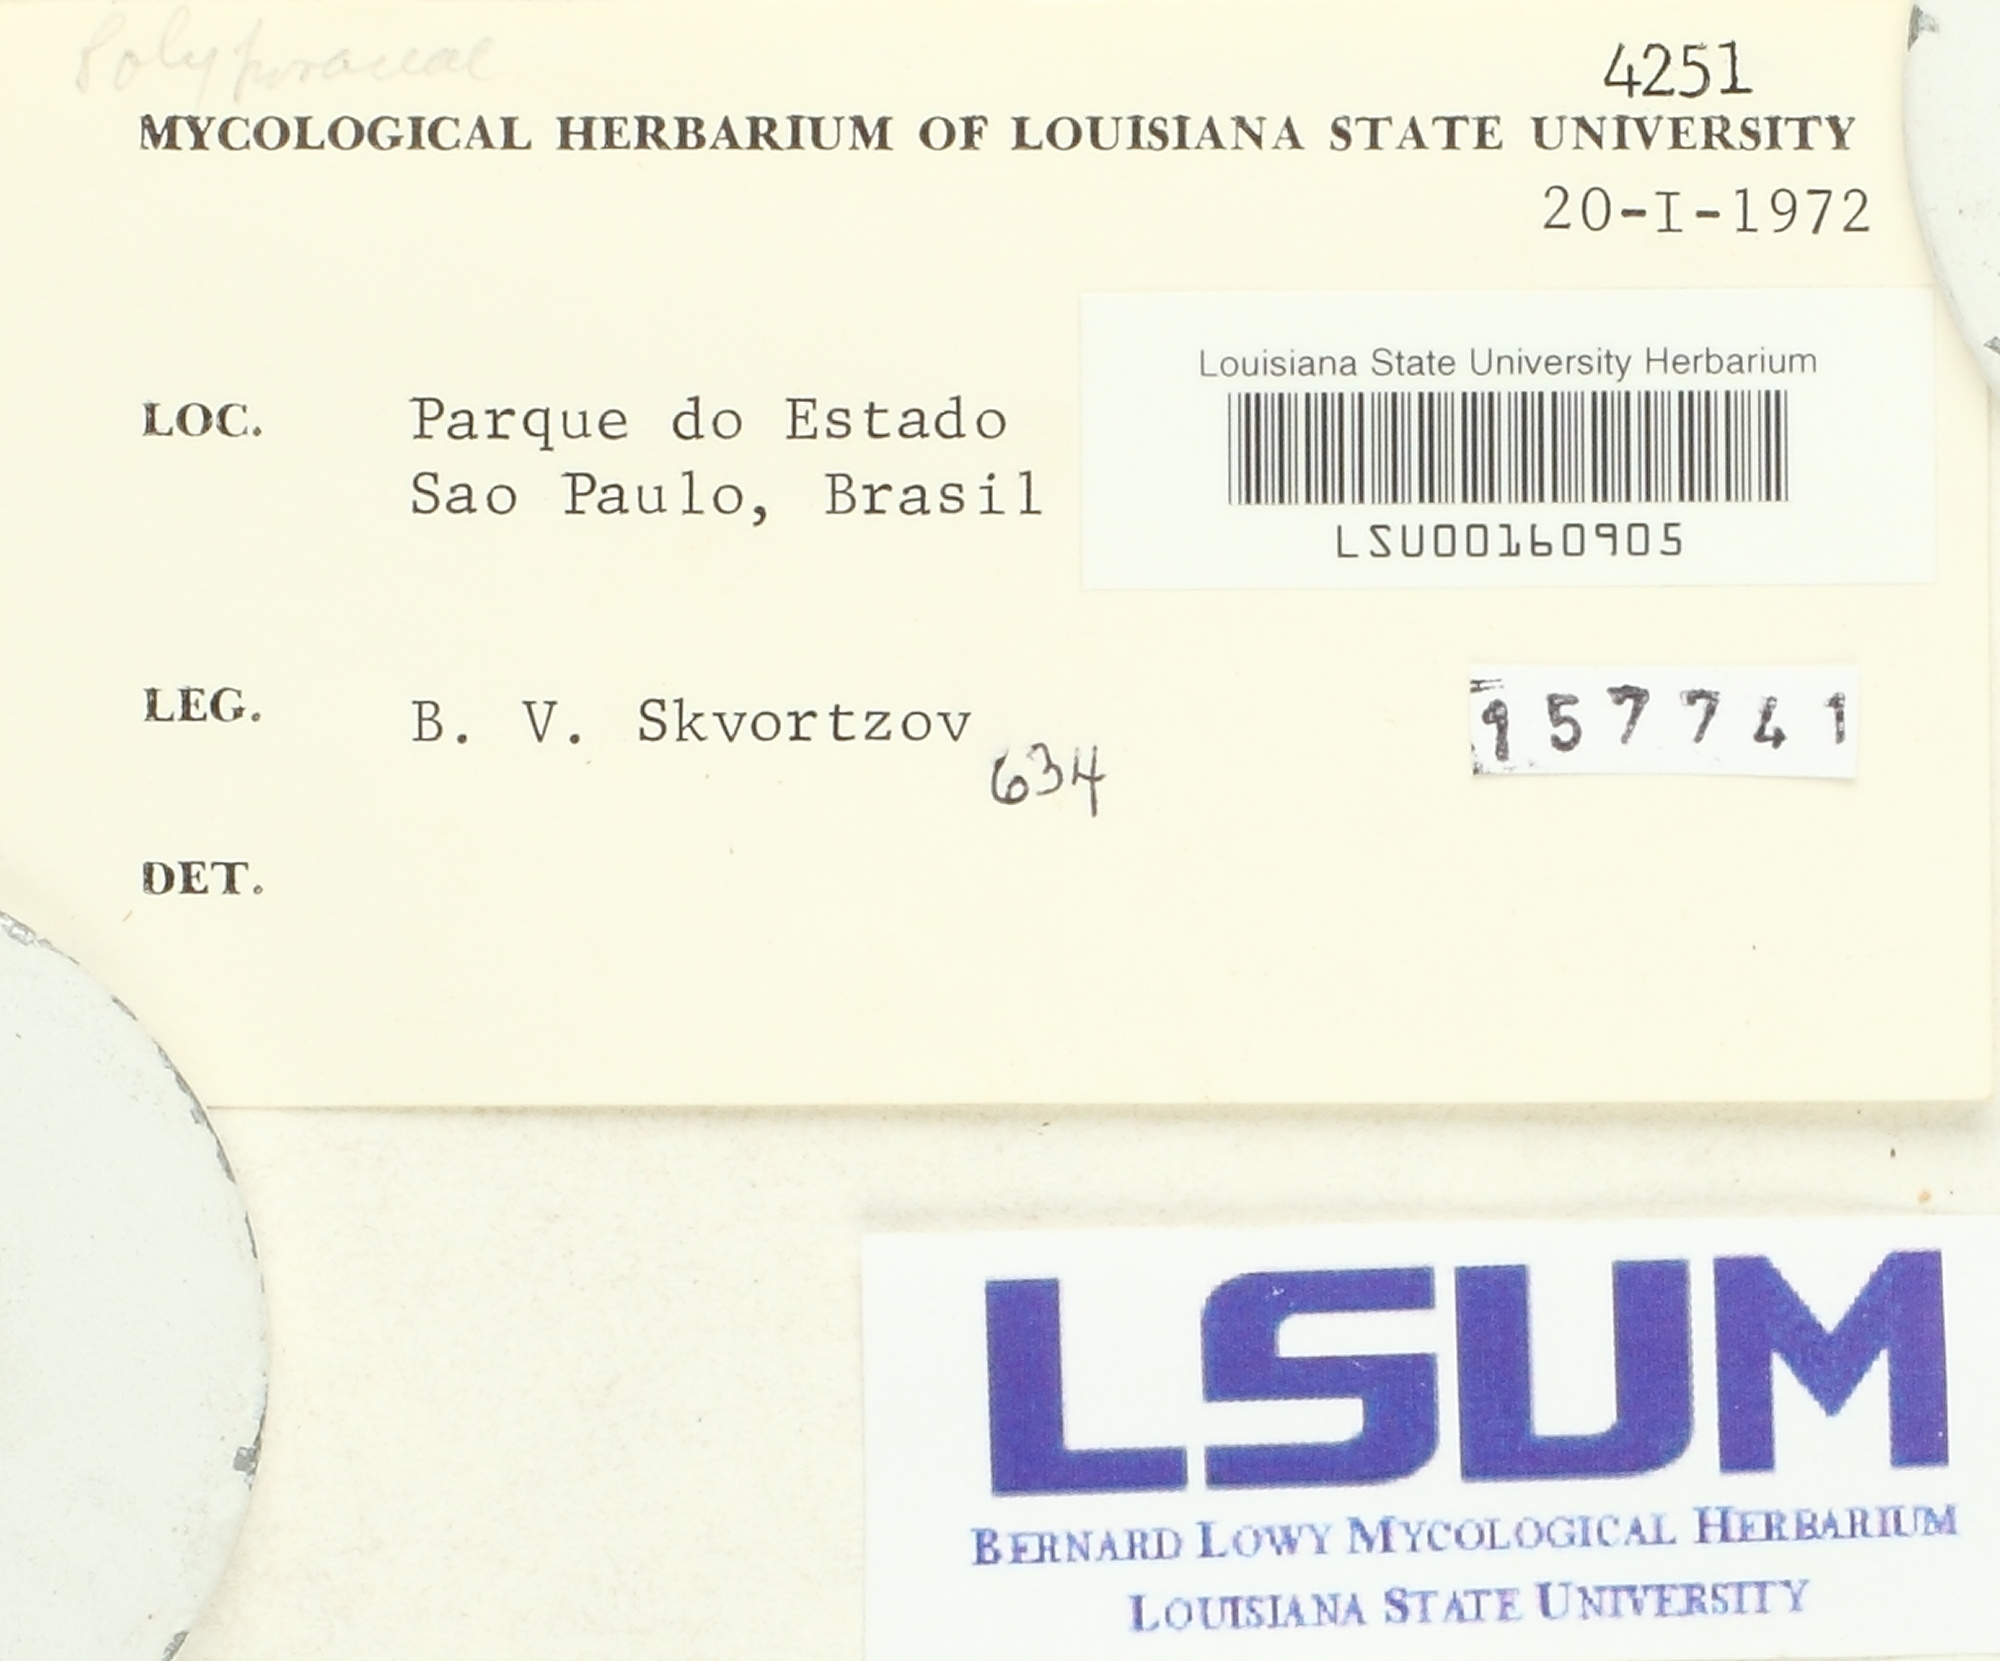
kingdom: Fungi
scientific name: Fungi
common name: Fungi
